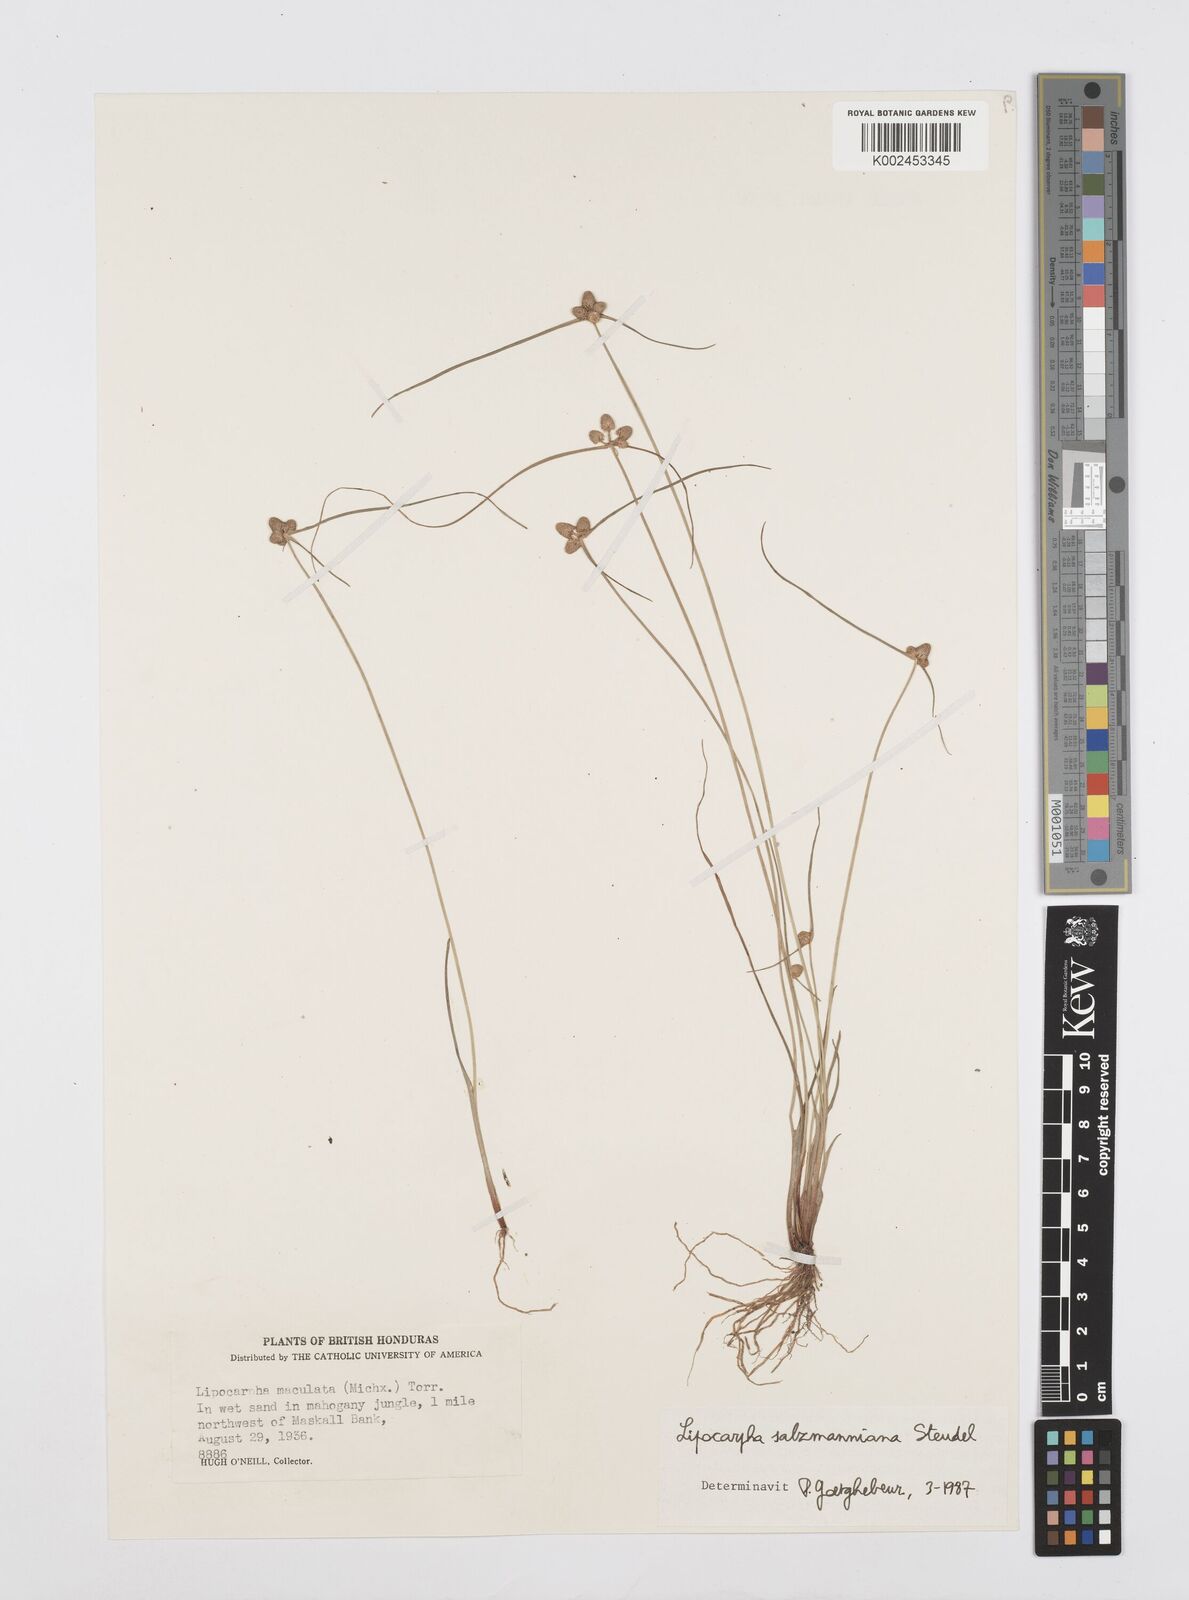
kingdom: Plantae
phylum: Tracheophyta
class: Liliopsida
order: Poales
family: Cyperaceae
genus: Cyperus
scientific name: Cyperus salzmannianus
